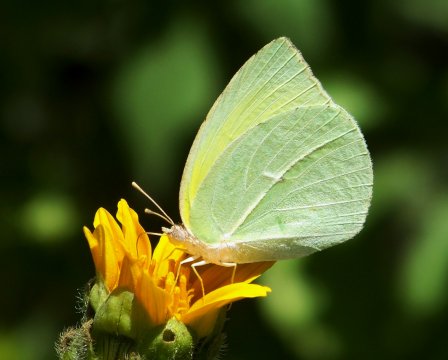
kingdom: Animalia
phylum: Arthropoda
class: Insecta
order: Lepidoptera
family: Pieridae
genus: Kricogonia
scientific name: Kricogonia lyside
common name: Lyside Sulphur
